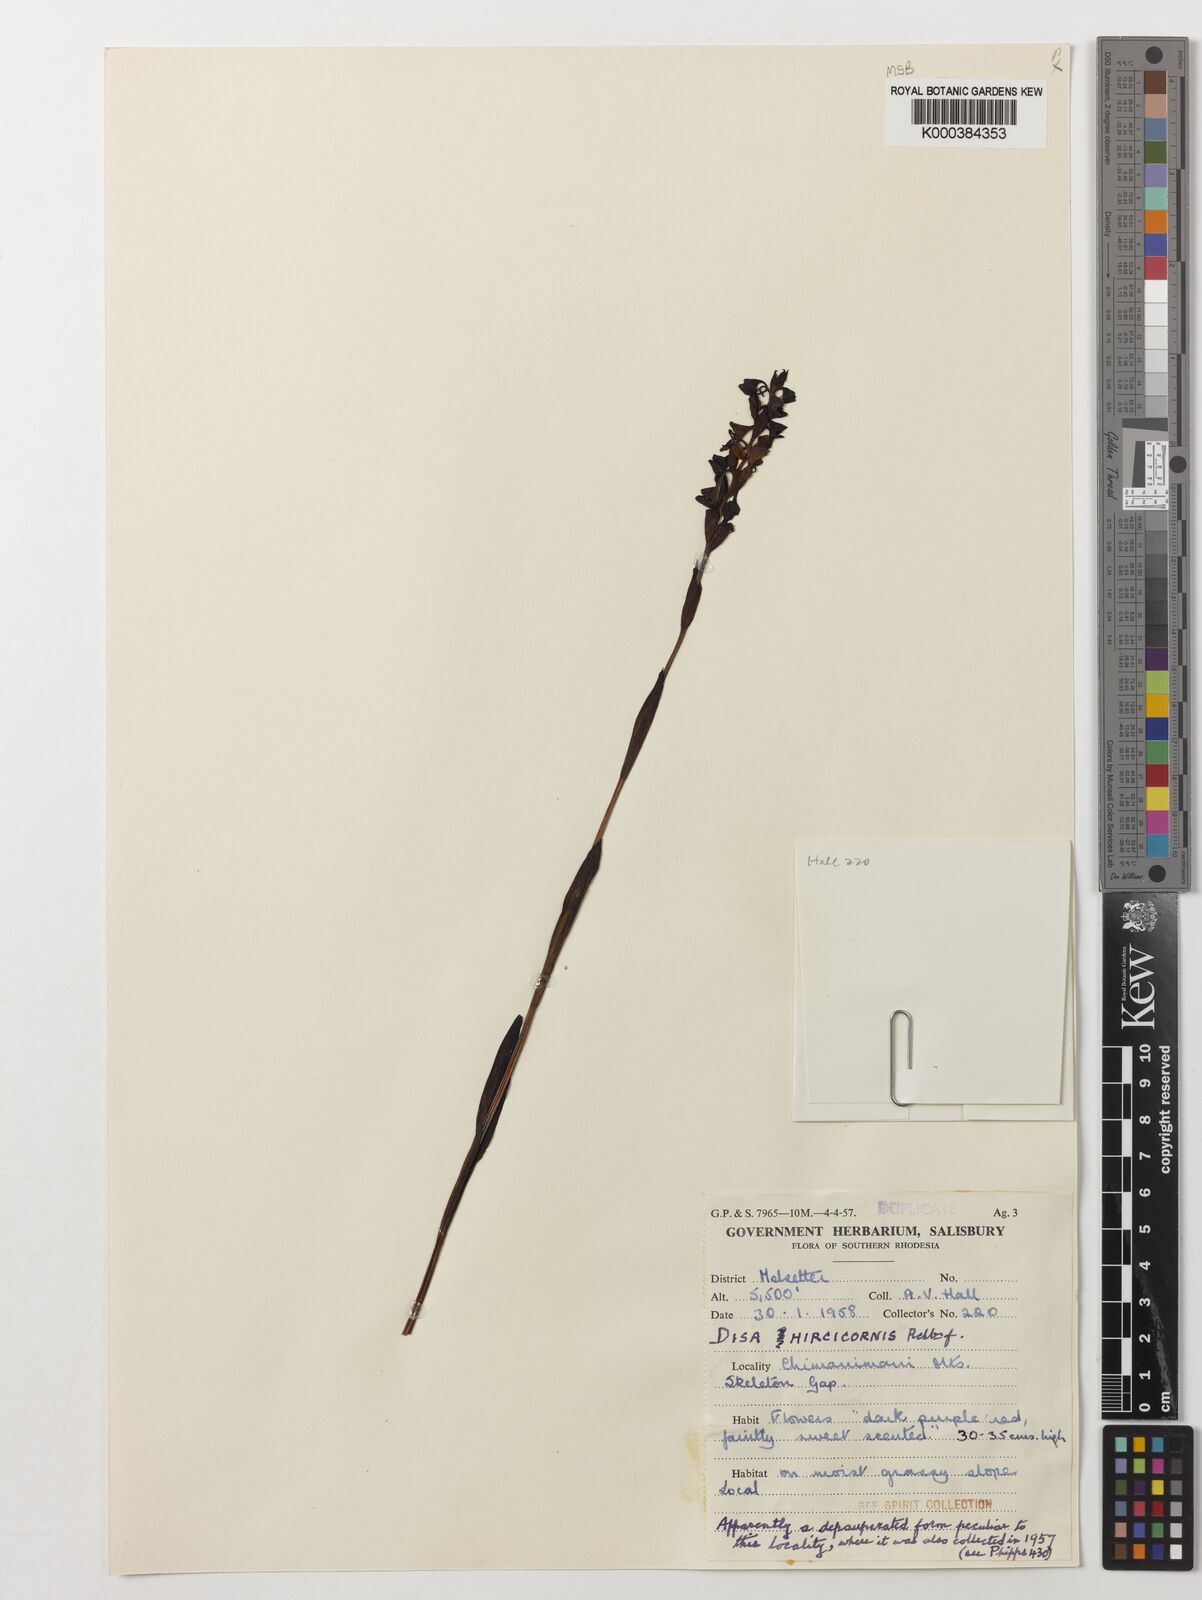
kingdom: Plantae
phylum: Tracheophyta
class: Liliopsida
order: Asparagales
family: Orchidaceae
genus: Disa
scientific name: Disa hircicornis
